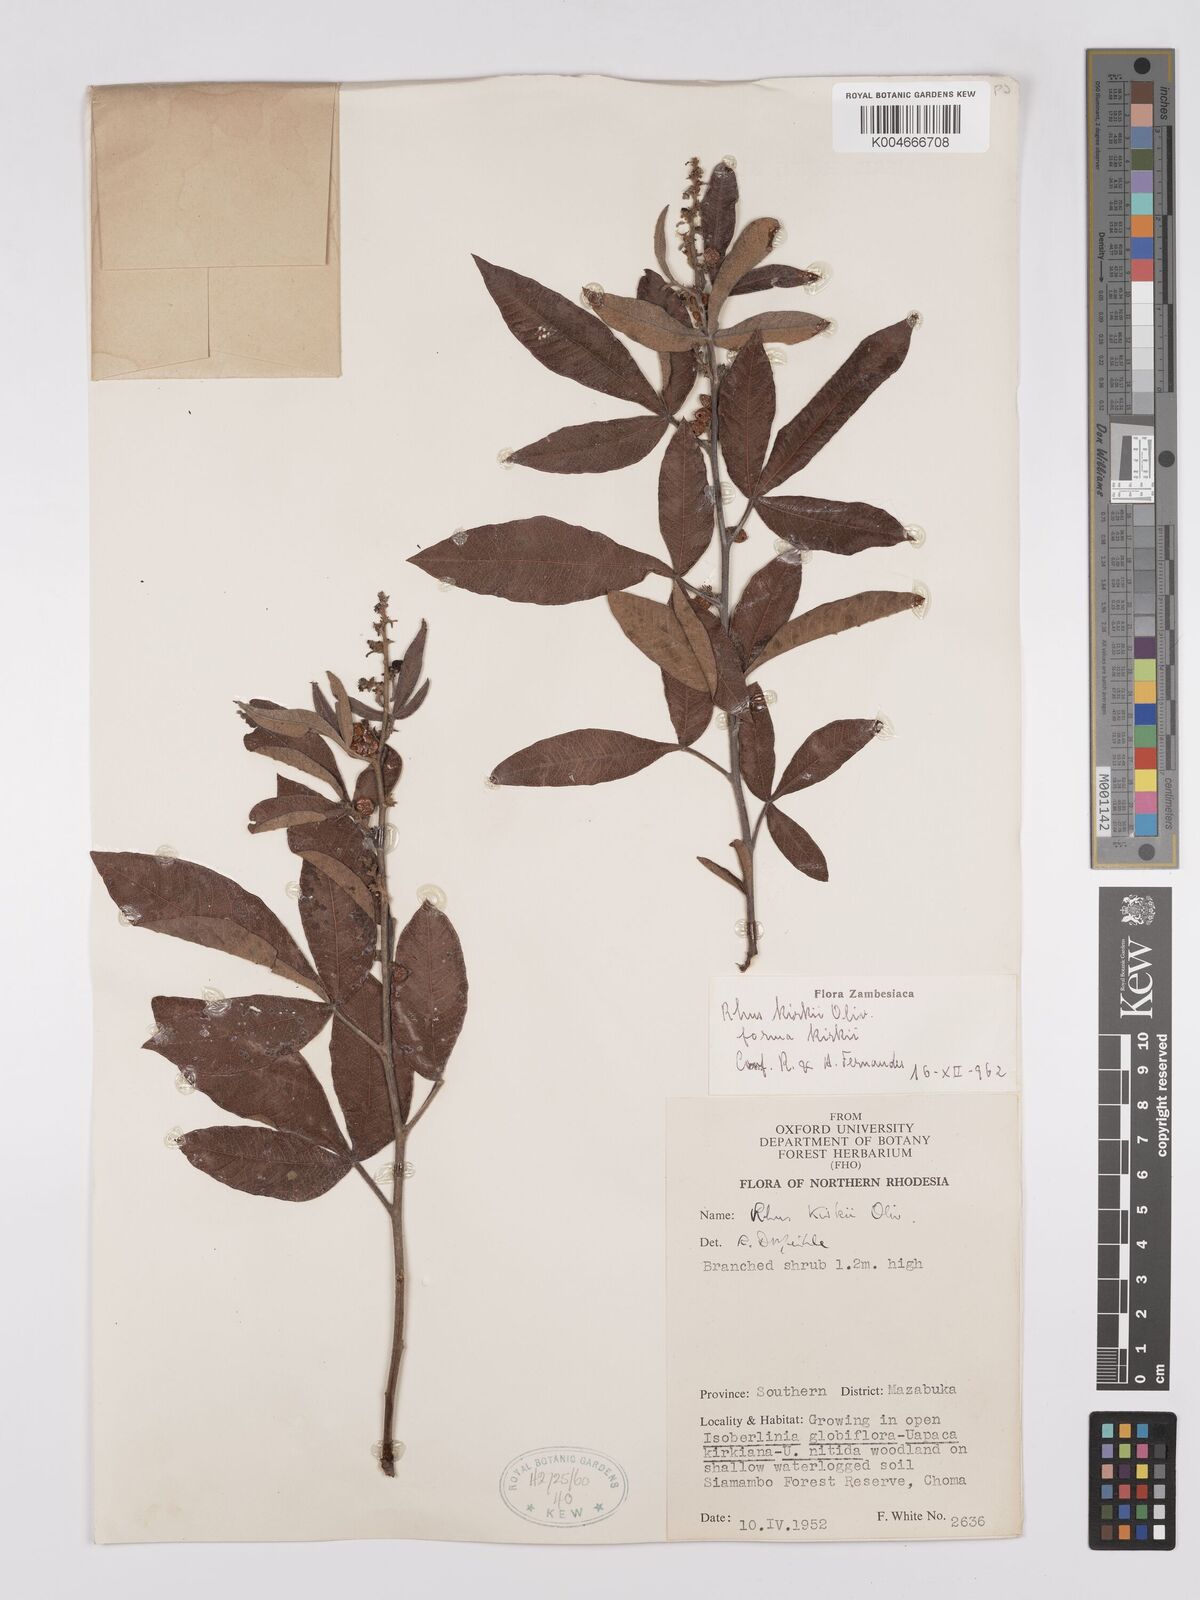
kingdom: Plantae
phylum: Tracheophyta
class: Magnoliopsida
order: Sapindales
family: Anacardiaceae
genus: Searsia
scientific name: Searsia kirkii
